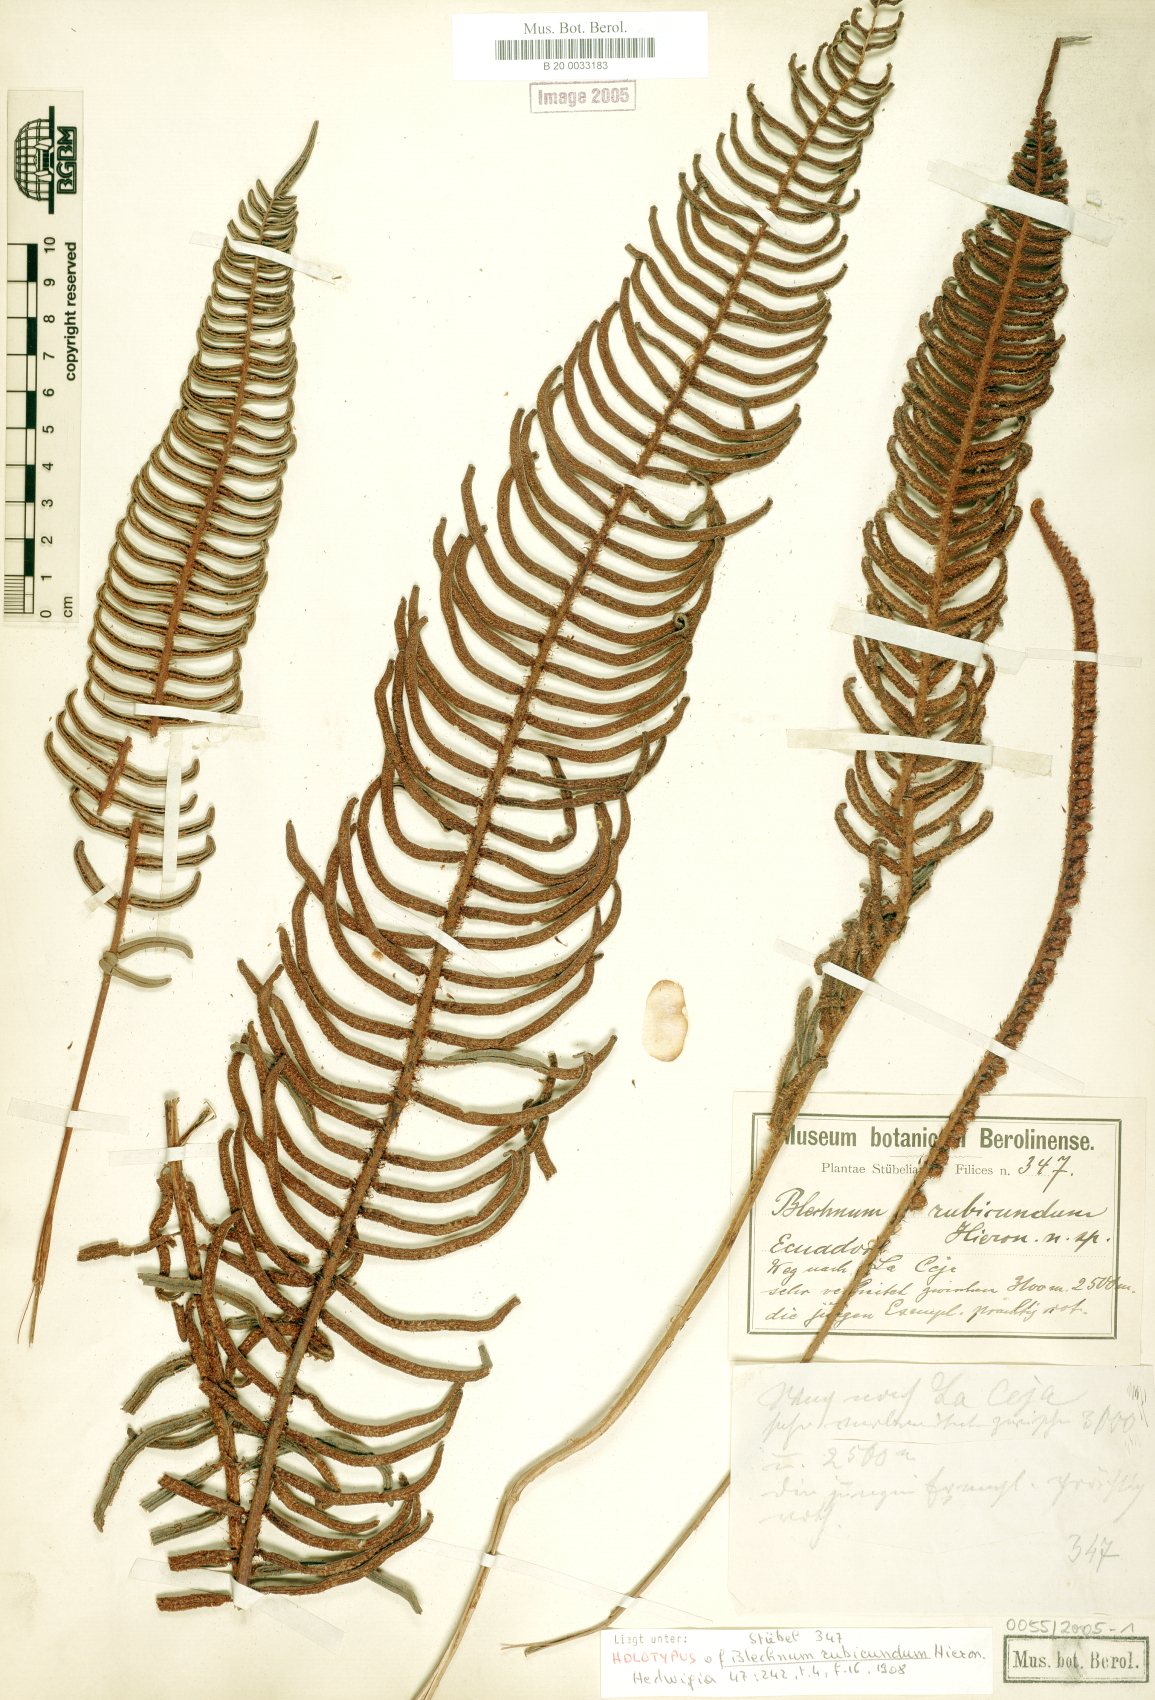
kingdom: Plantae
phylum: Tracheophyta
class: Polypodiopsida
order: Polypodiales
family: Blechnaceae
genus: Parablechnum
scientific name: Parablechnum stipitellatum
